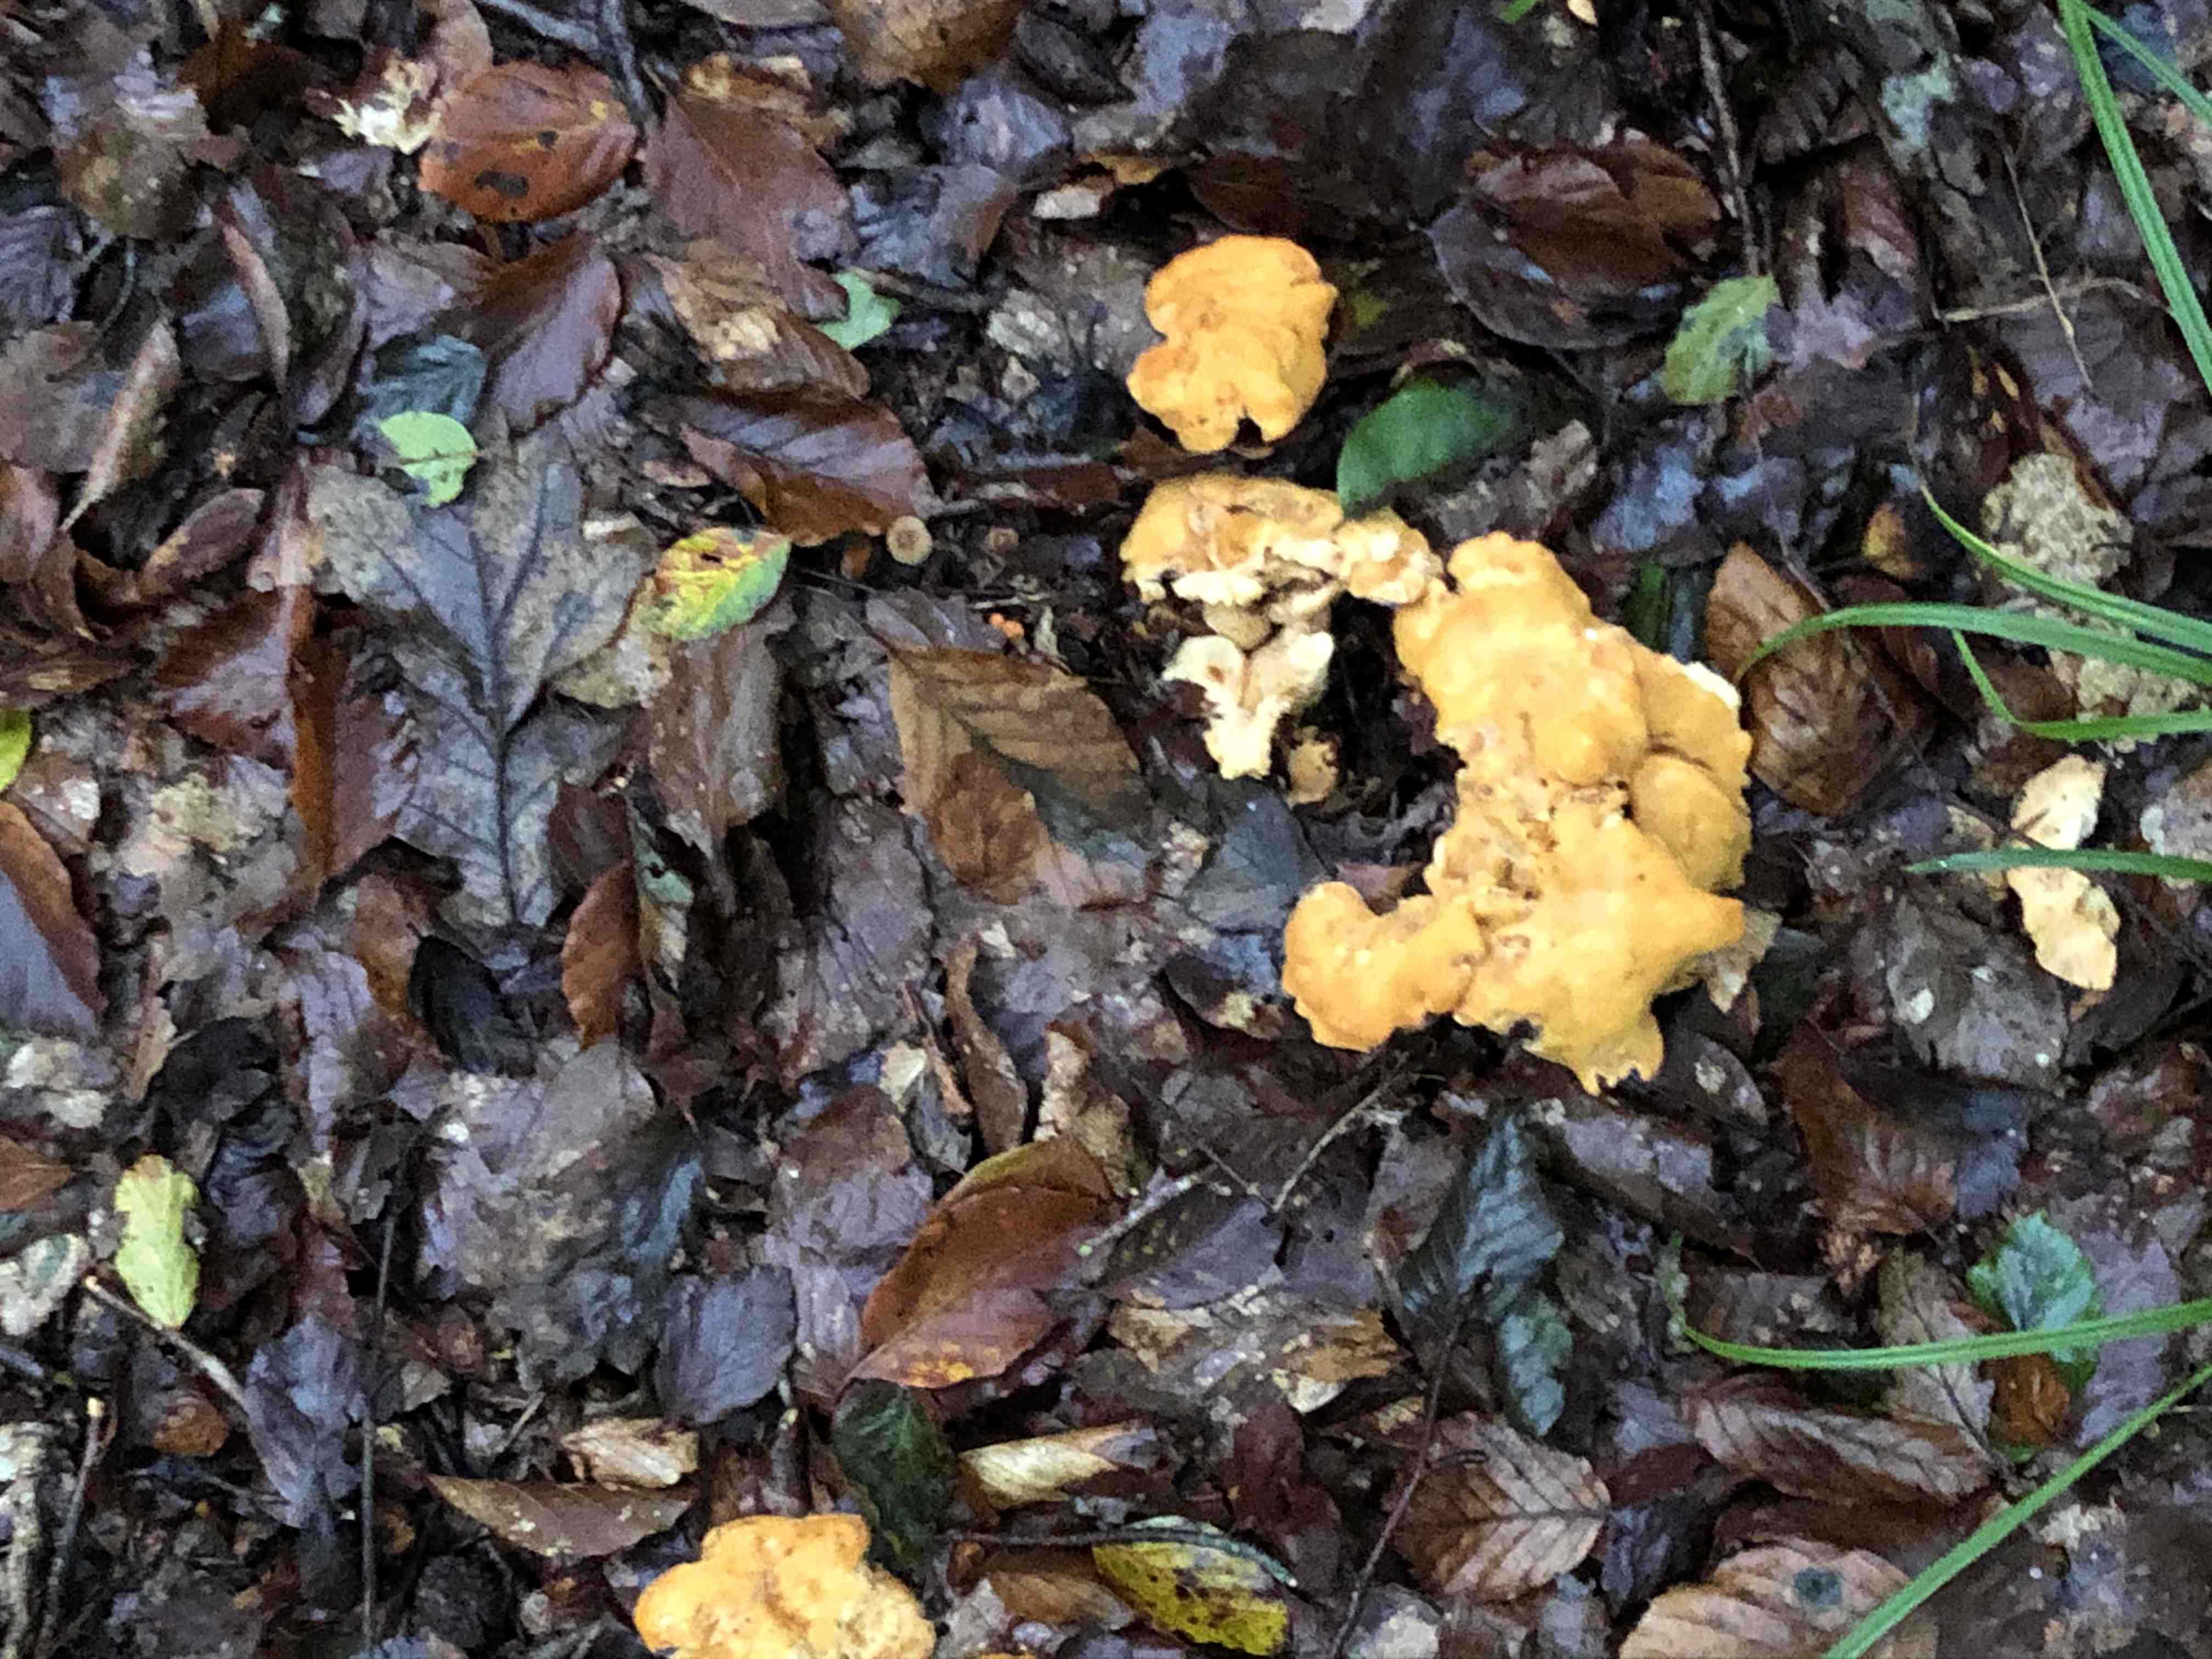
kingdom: Fungi
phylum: Basidiomycota
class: Agaricomycetes
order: Cantharellales
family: Hydnaceae
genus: Cantharellus
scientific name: Cantharellus pallens
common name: bleg kantarel
